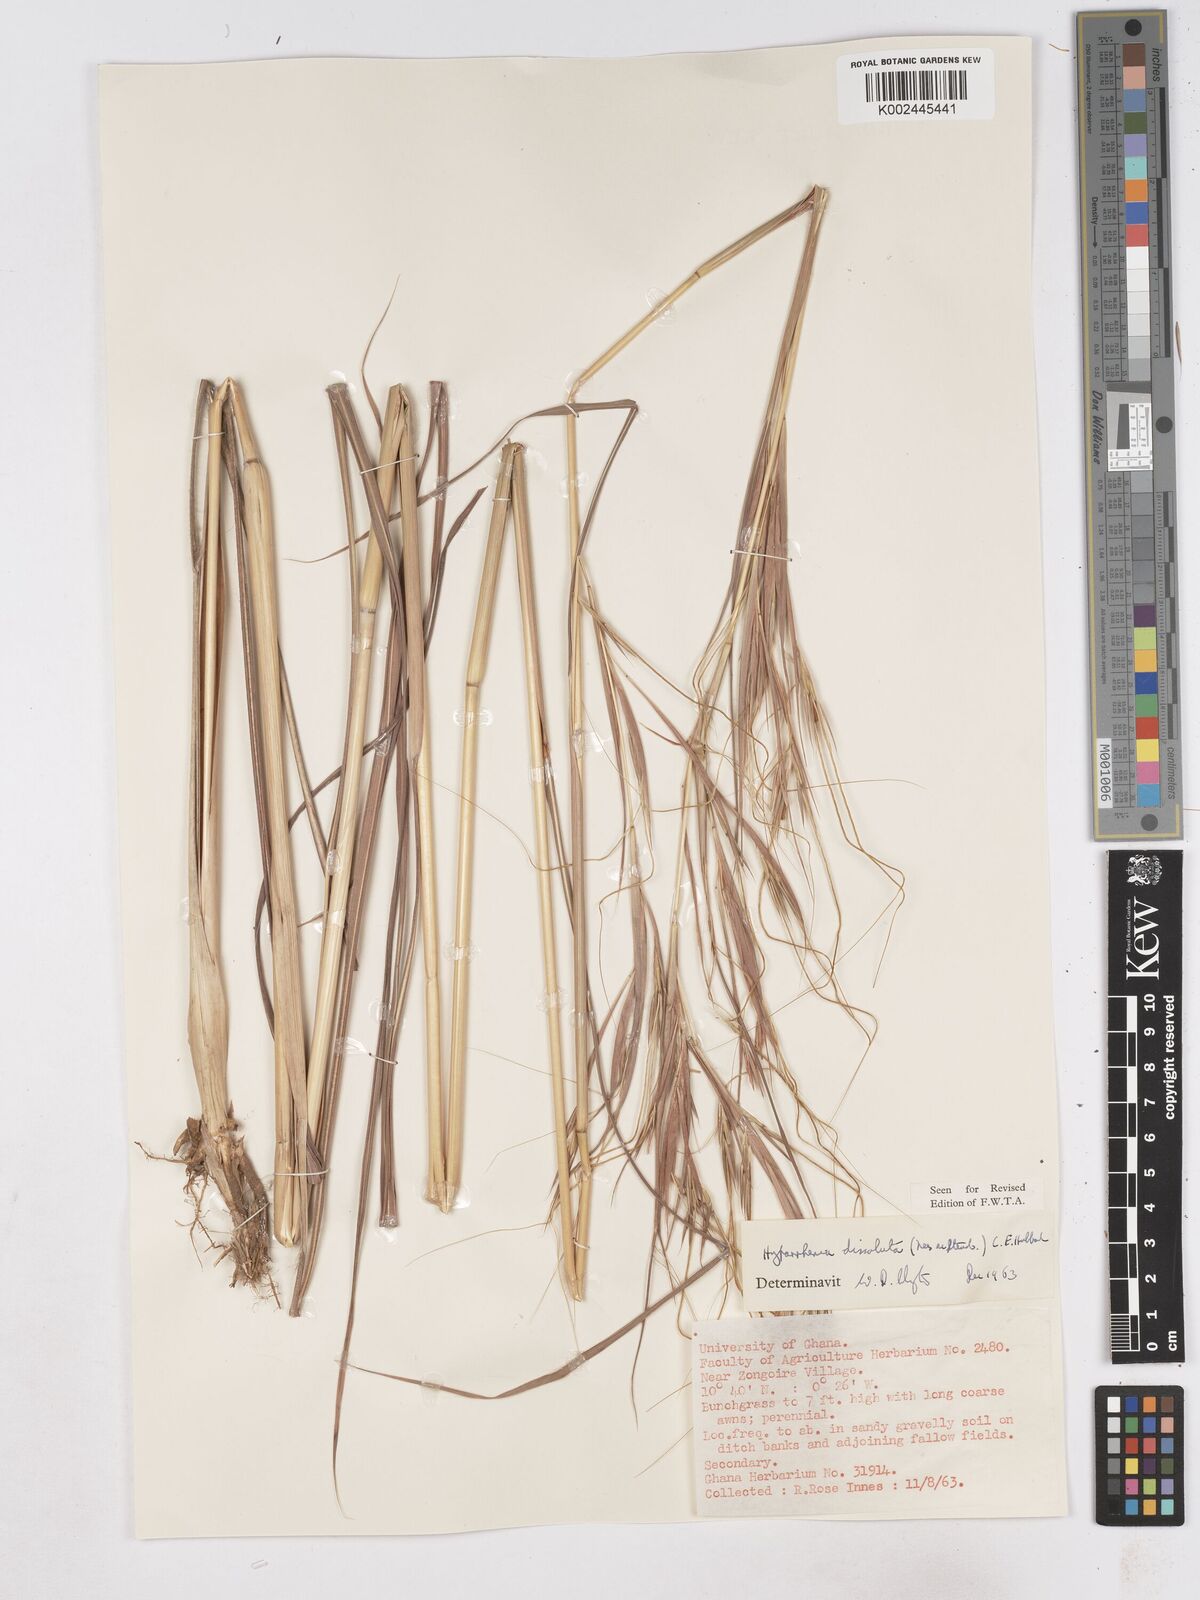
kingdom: Plantae
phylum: Tracheophyta
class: Liliopsida
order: Poales
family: Poaceae
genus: Hyperthelia
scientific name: Hyperthelia dissoluta
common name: Yellow thatching grass
